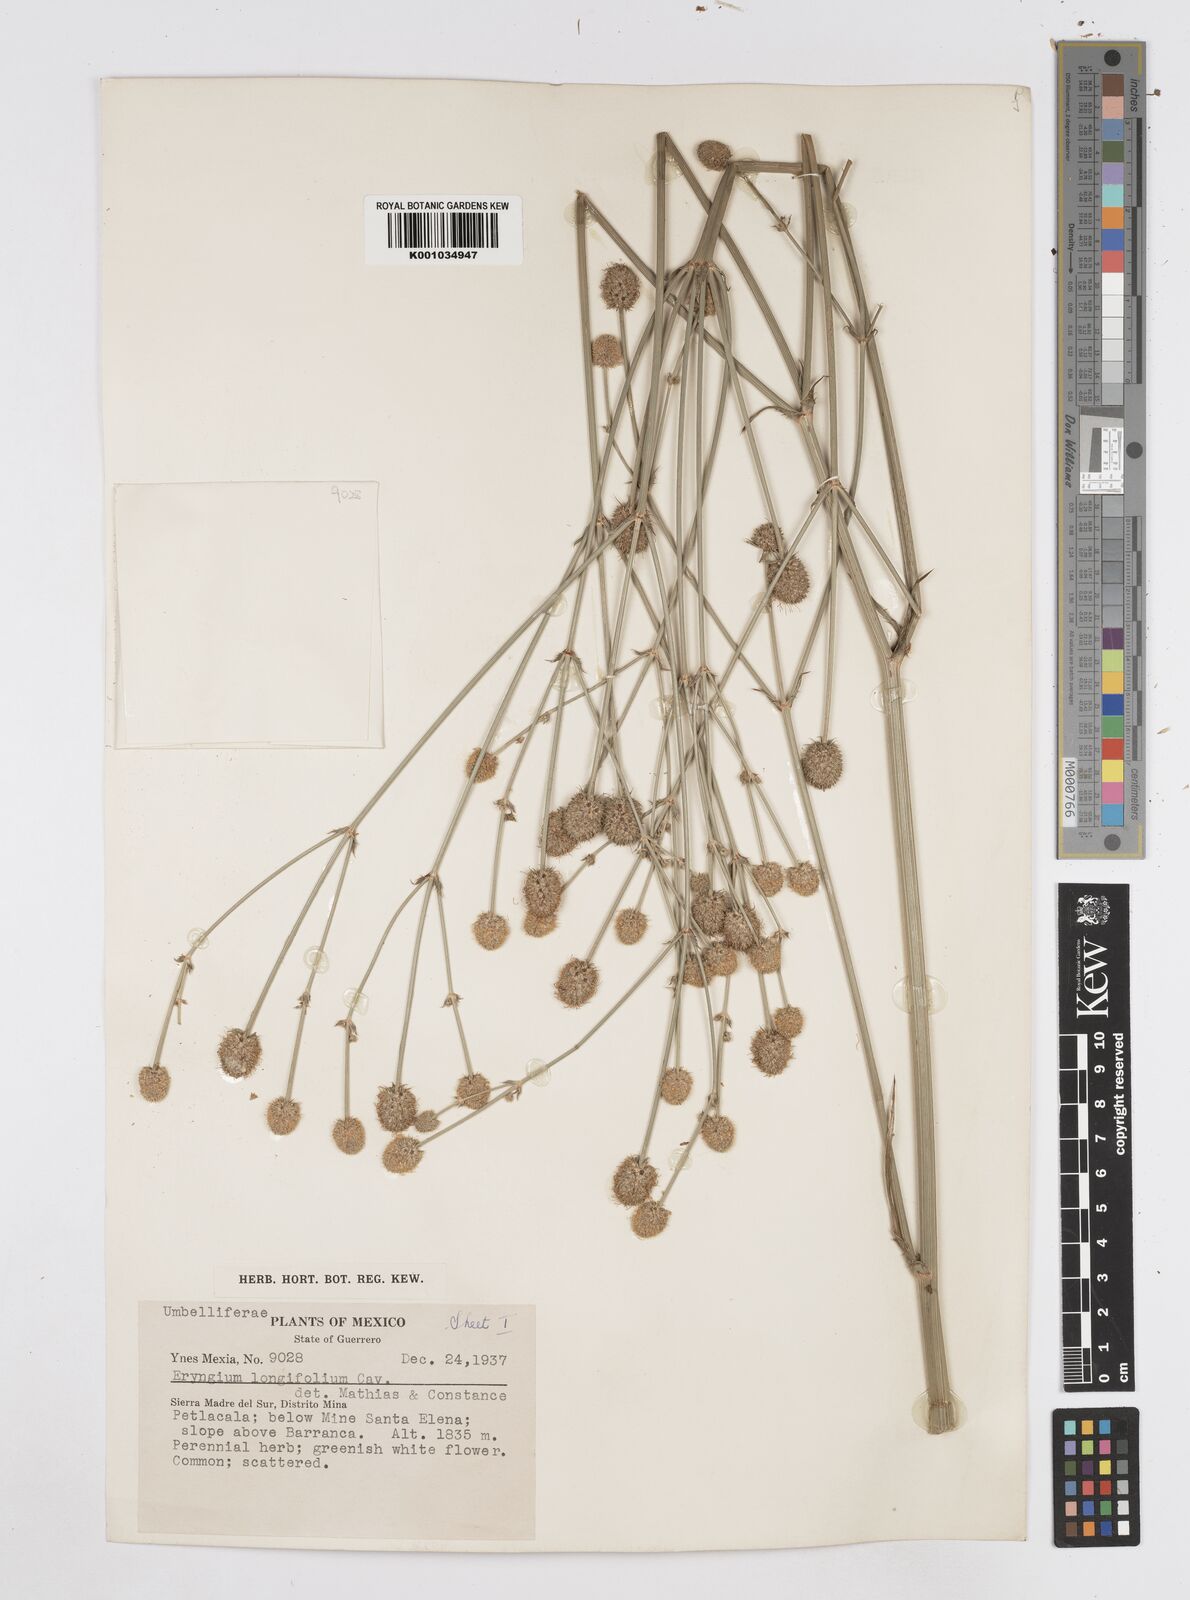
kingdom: Plantae
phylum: Tracheophyta
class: Magnoliopsida
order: Apiales
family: Apiaceae
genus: Eryngium
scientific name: Eryngium longifolium
